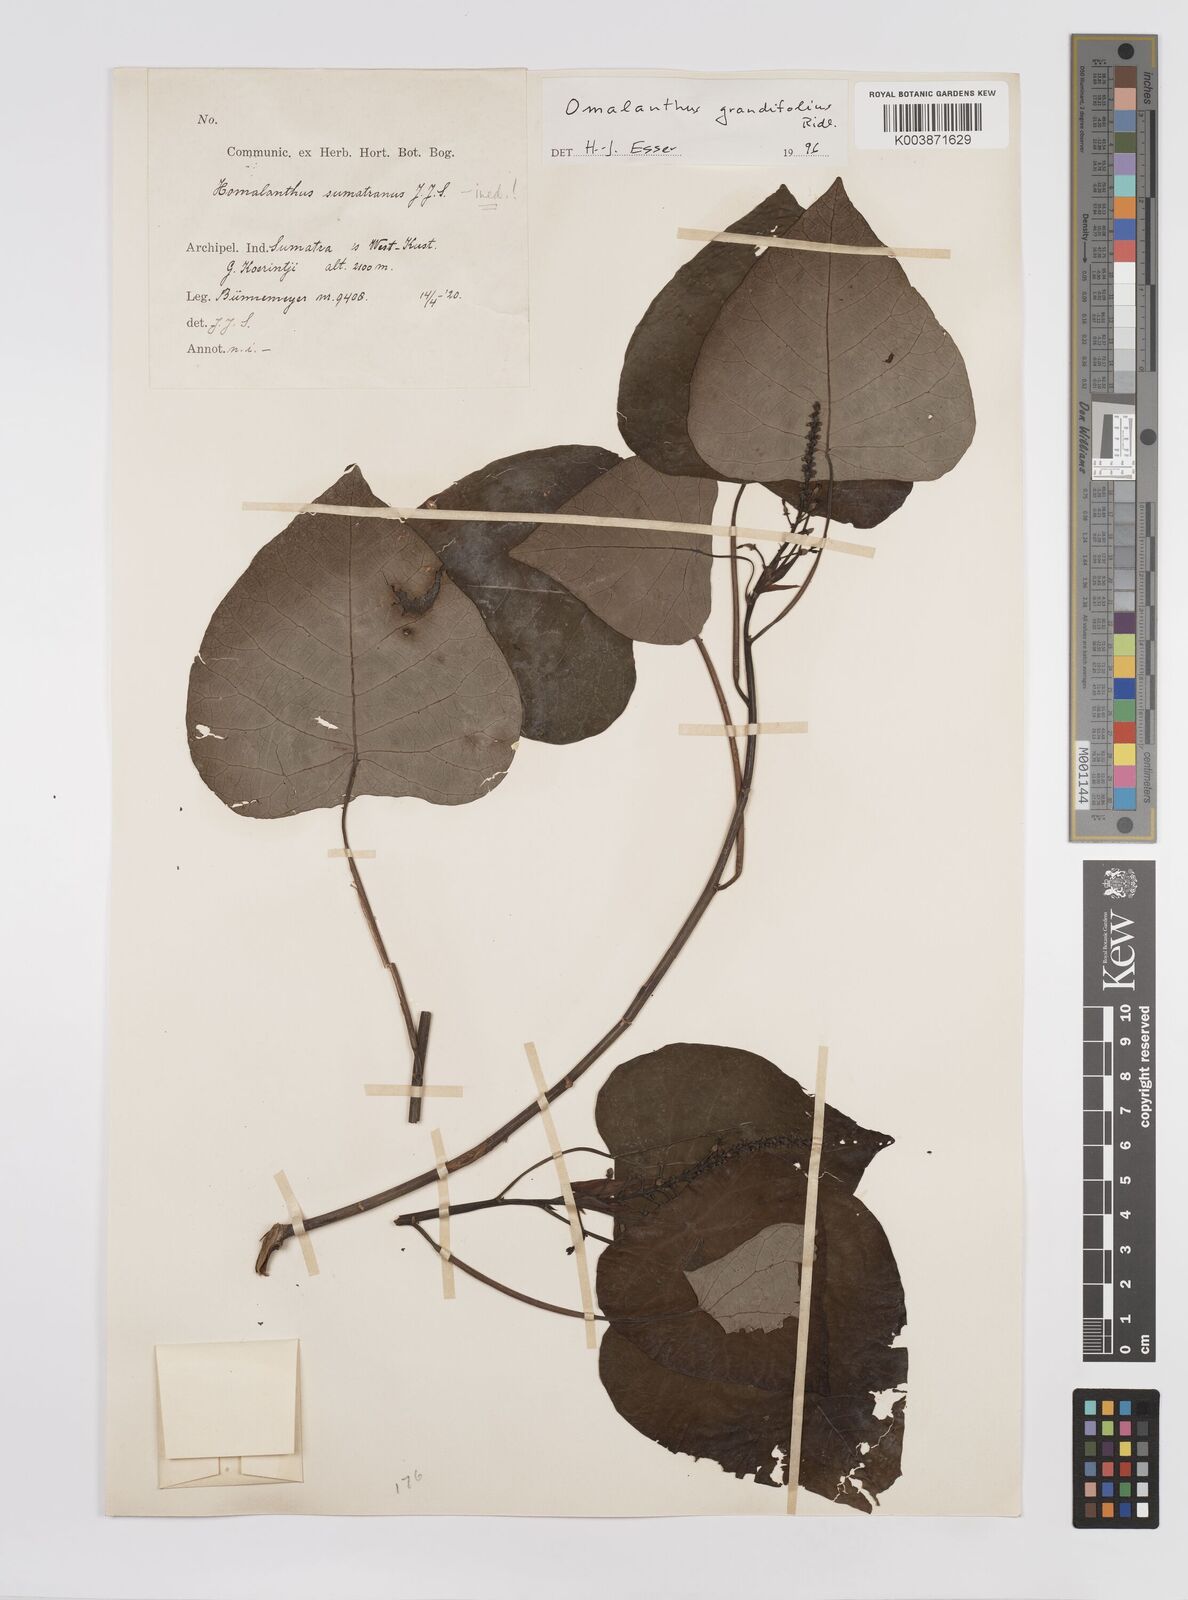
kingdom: Plantae
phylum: Tracheophyta
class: Magnoliopsida
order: Malpighiales
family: Euphorbiaceae
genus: Homalanthus
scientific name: Homalanthus grandifolius
